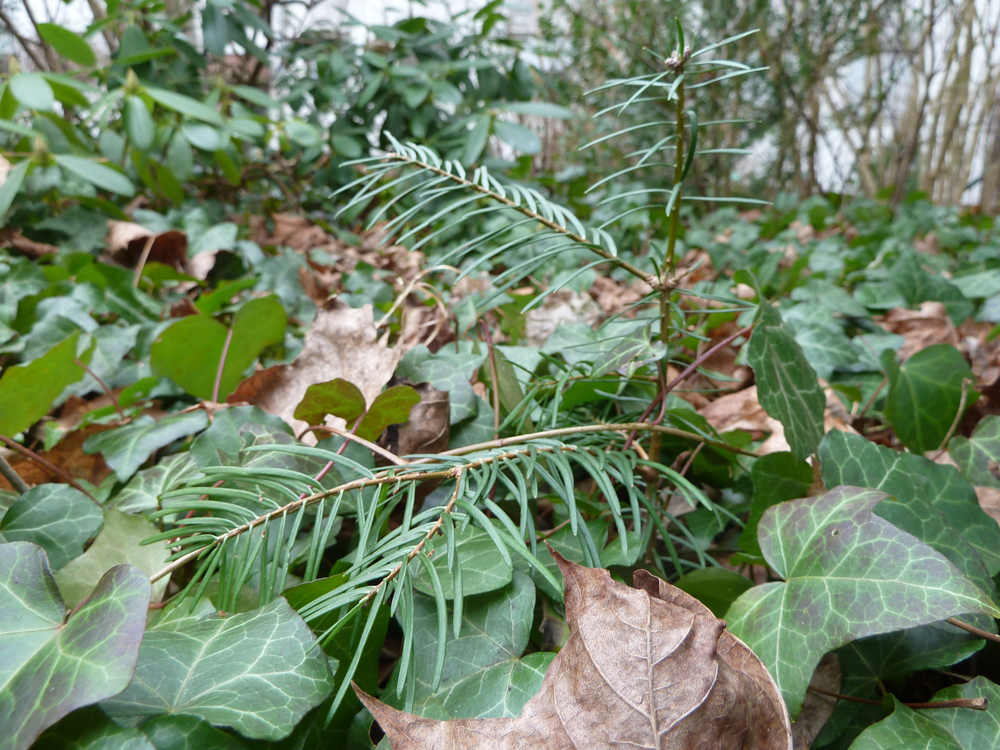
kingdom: Plantae
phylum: Tracheophyta
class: Pinopsida
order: Pinales
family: Pinaceae
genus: Abies
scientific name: Abies concolor
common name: Colorado fir
